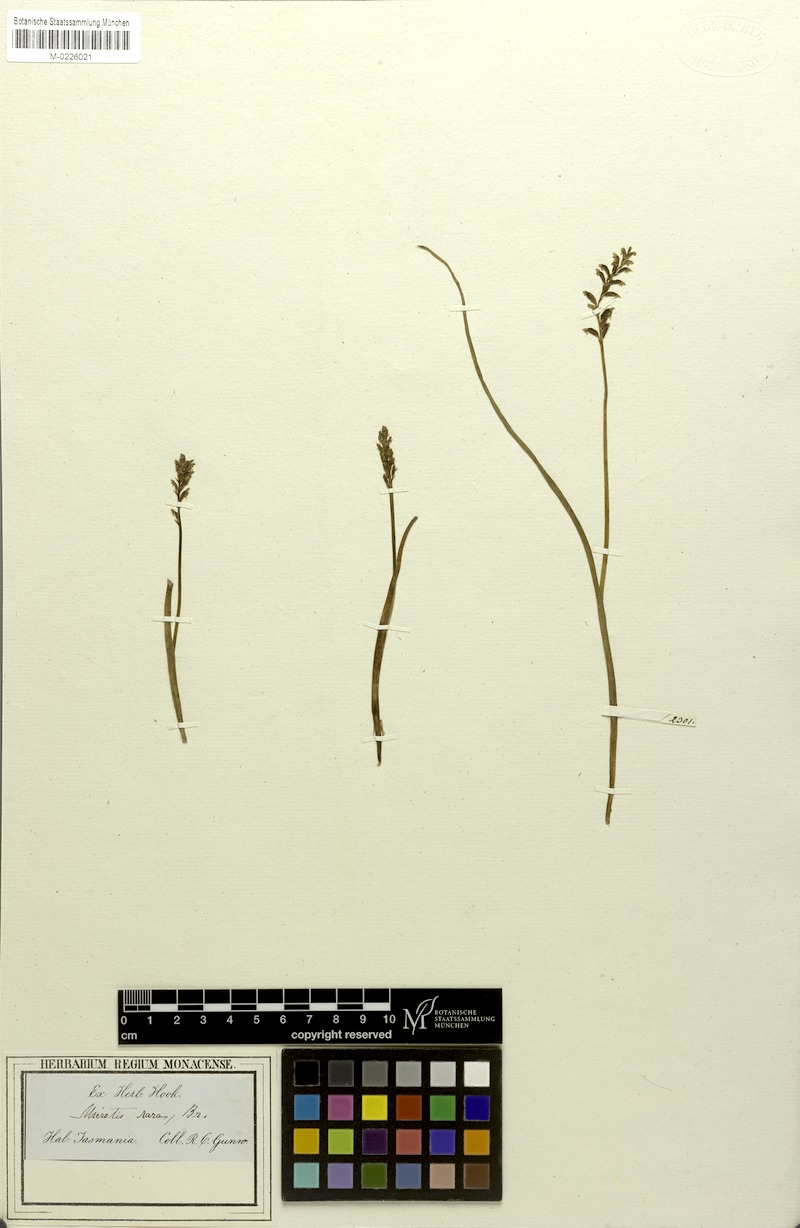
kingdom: Plantae
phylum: Tracheophyta
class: Liliopsida
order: Asparagales
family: Orchidaceae
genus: Microtis
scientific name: Microtis rara
